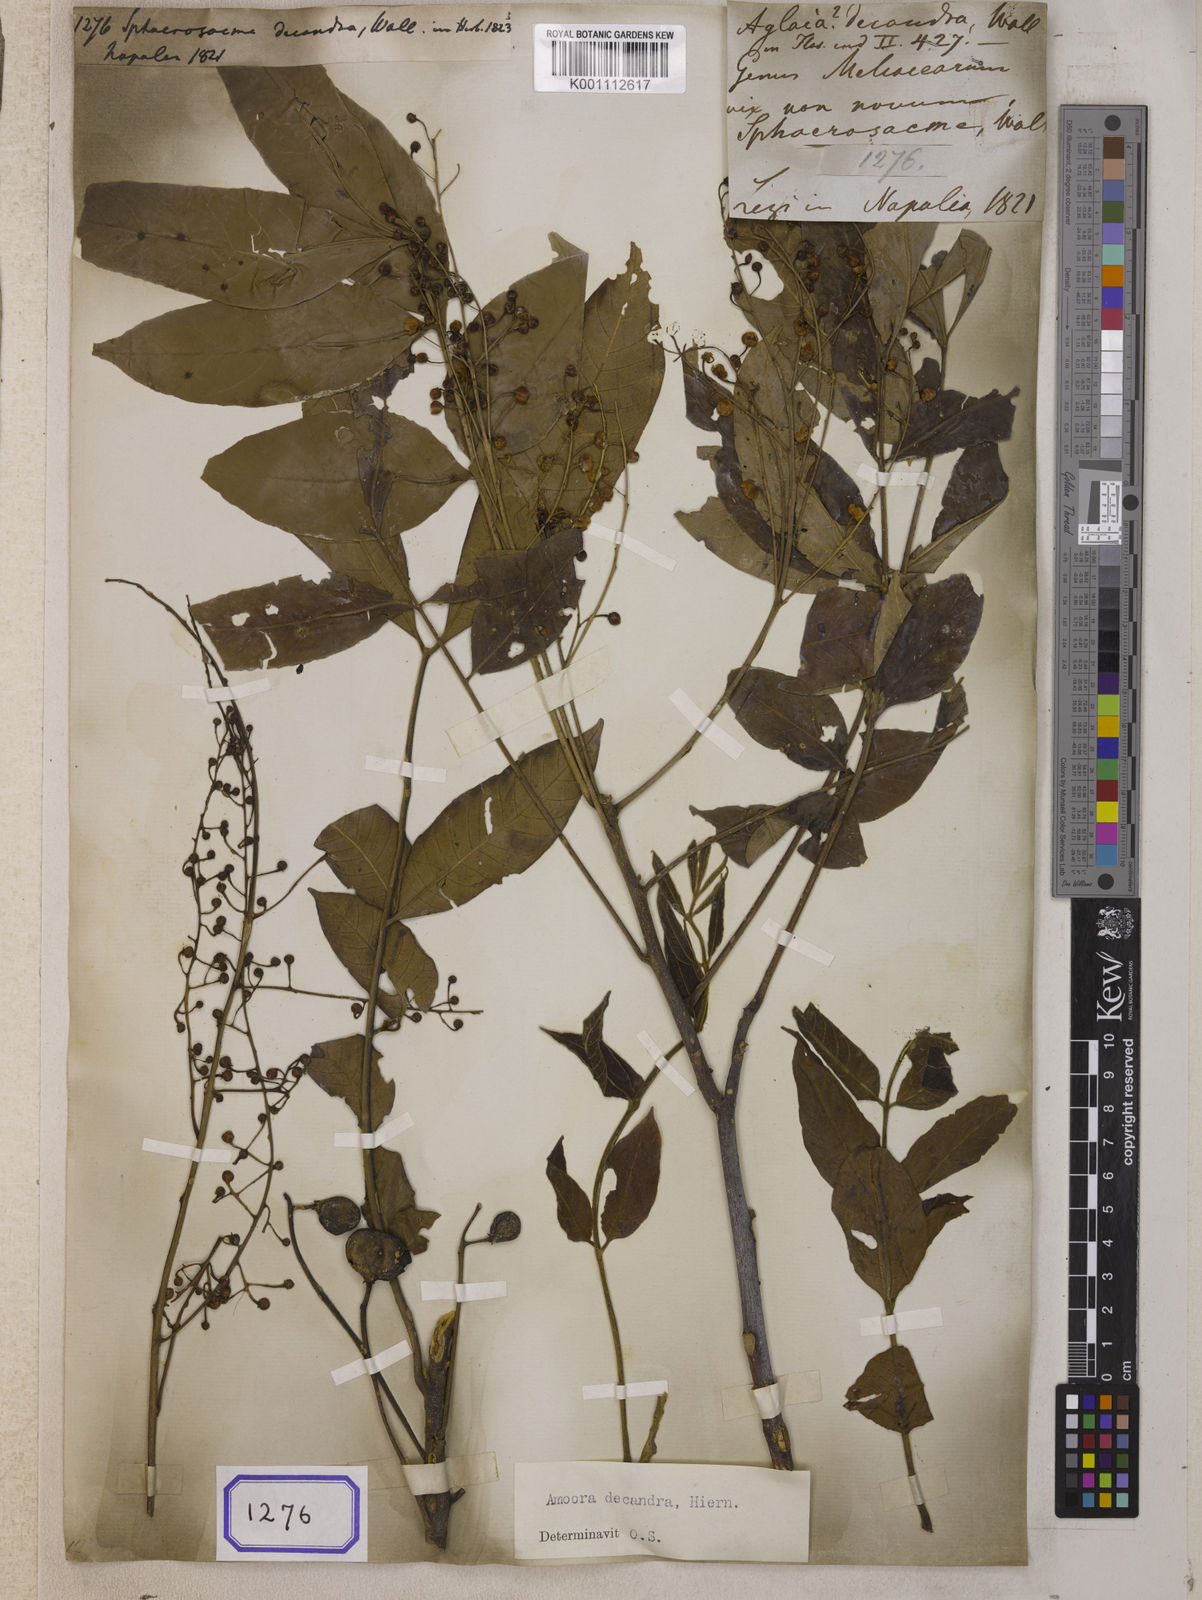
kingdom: Plantae
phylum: Tracheophyta
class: Magnoliopsida
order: Sapindales
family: Meliaceae
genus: Sphaerosacme
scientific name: Sphaerosacme
